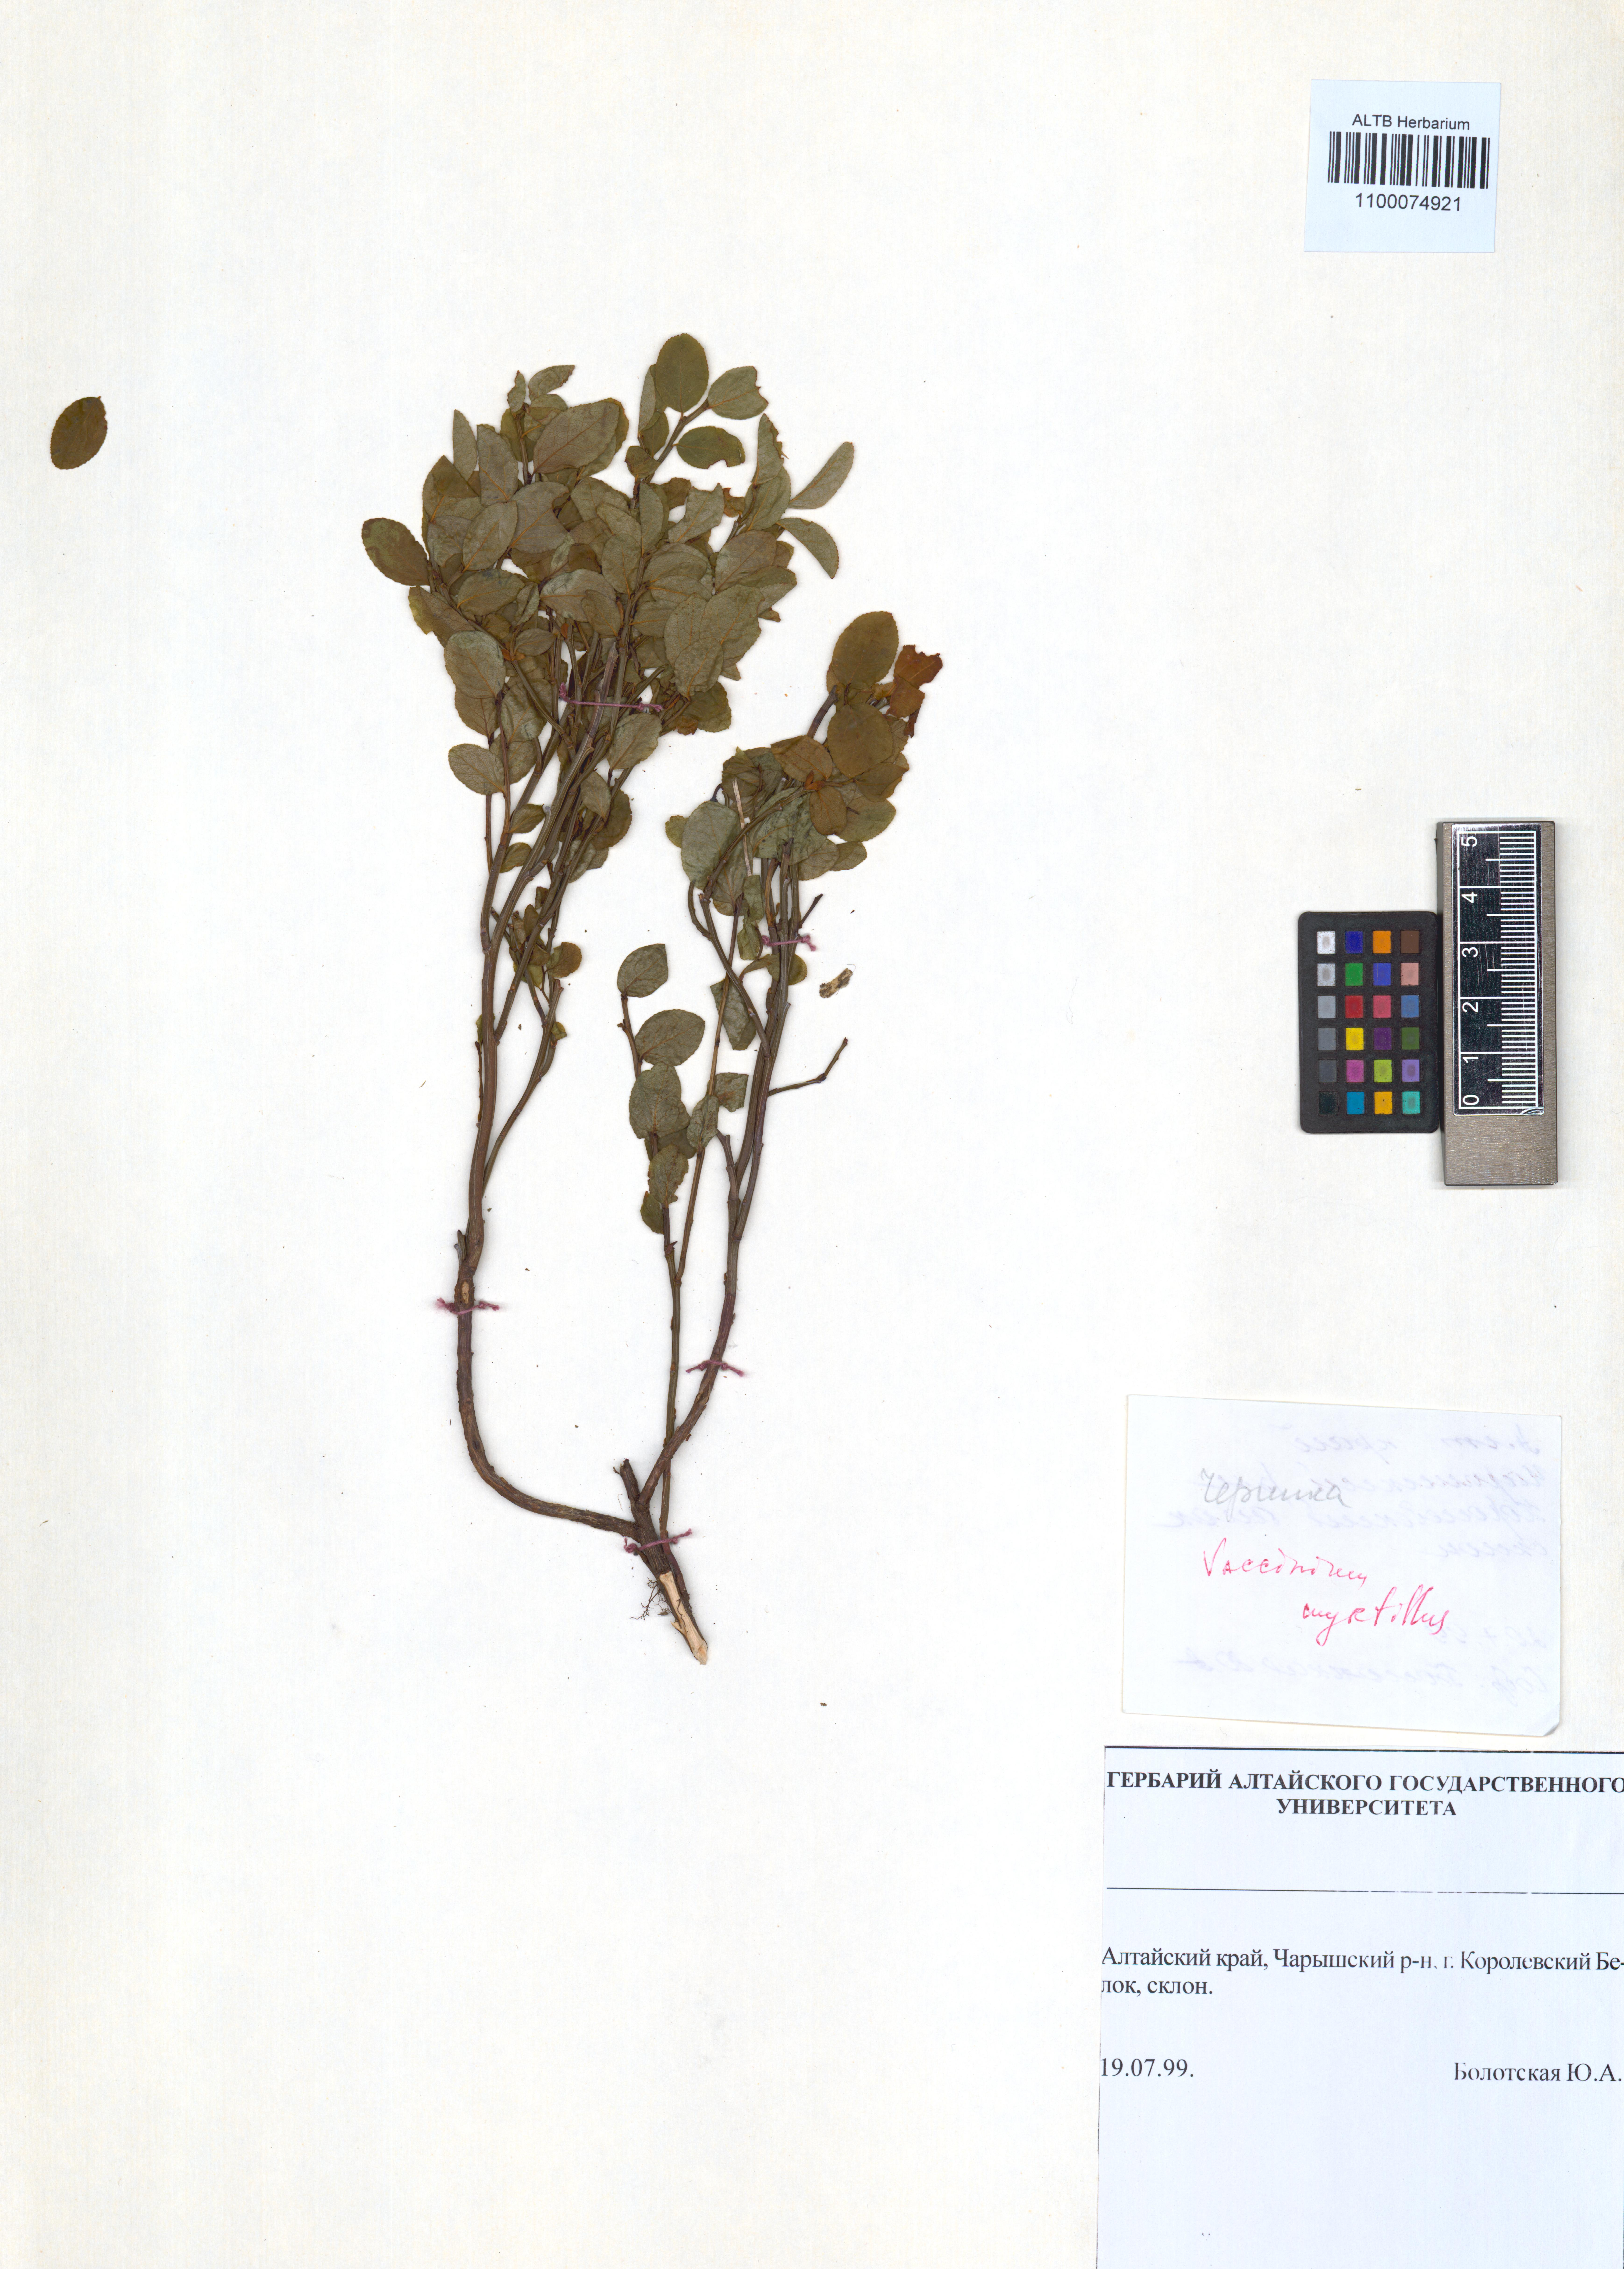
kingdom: Plantae
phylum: Tracheophyta
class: Magnoliopsida
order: Ericales
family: Ericaceae
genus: Vaccinium
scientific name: Vaccinium myrtillus
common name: Bilberry
